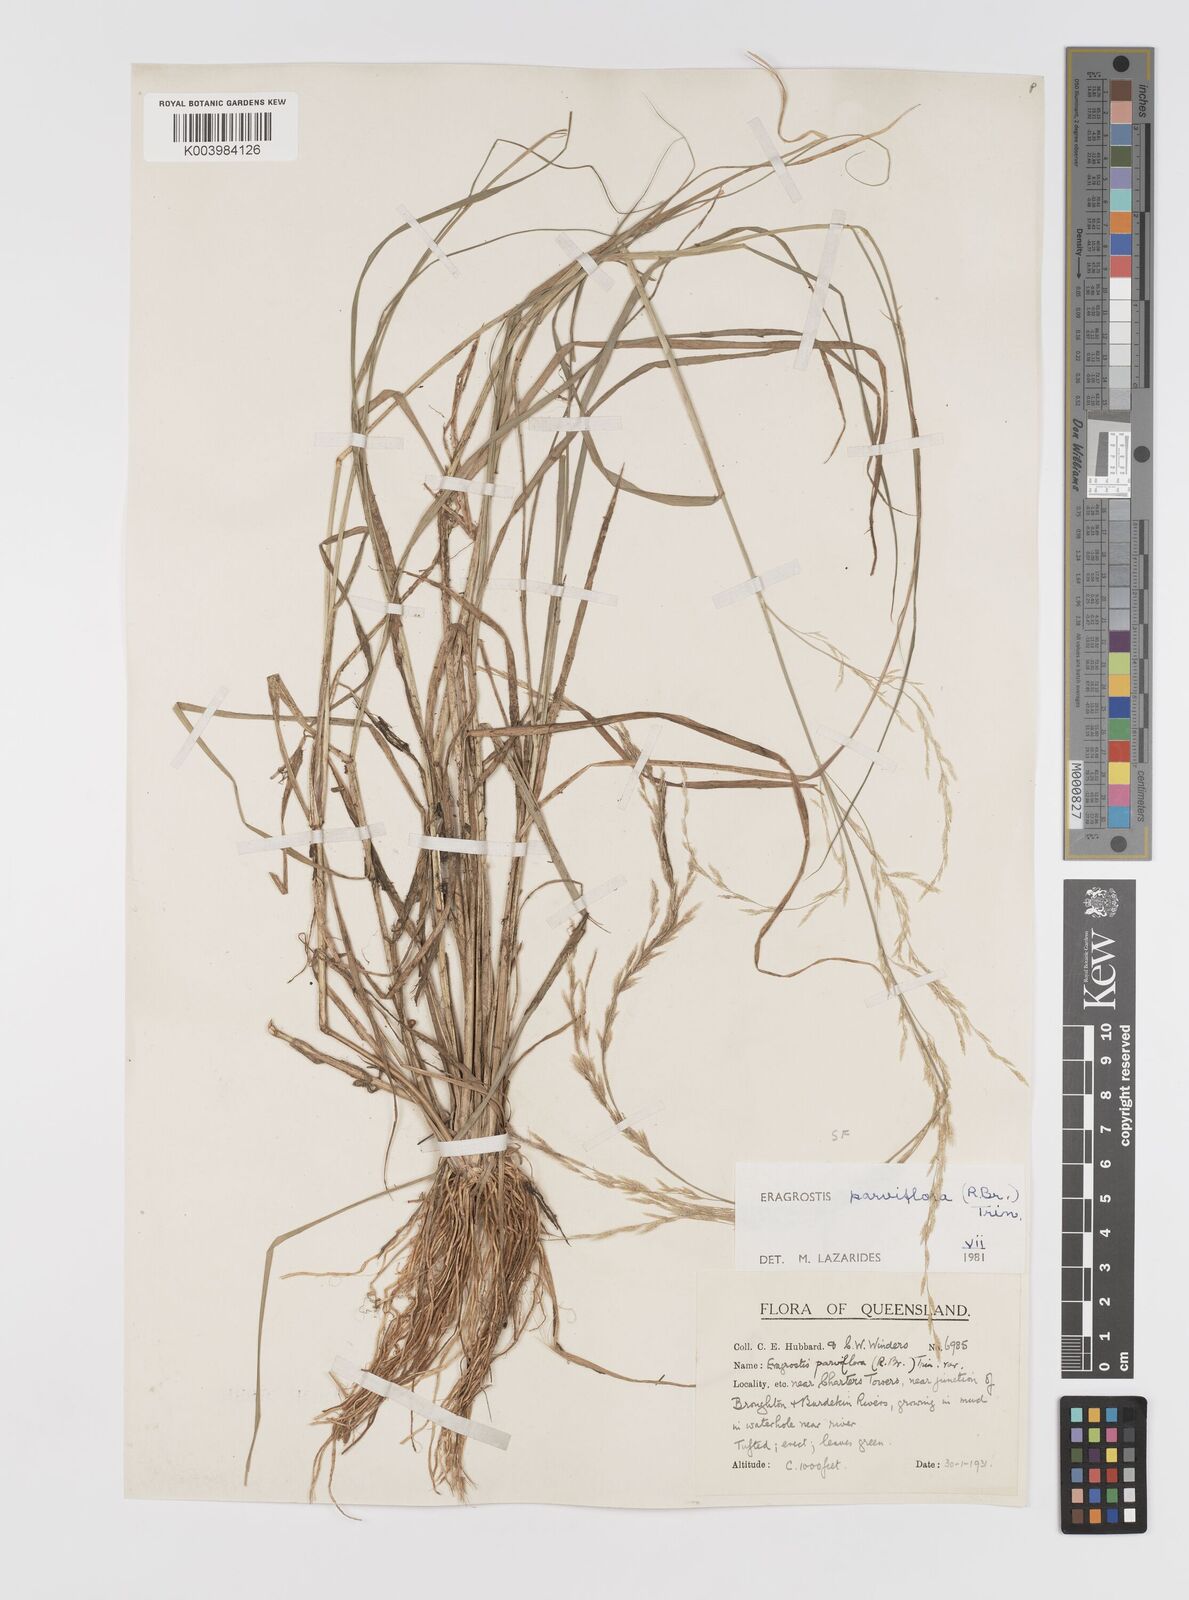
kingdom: Plantae
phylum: Tracheophyta
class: Liliopsida
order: Poales
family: Poaceae
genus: Eragrostis
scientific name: Eragrostis parviflora
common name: Weeping love-grass
